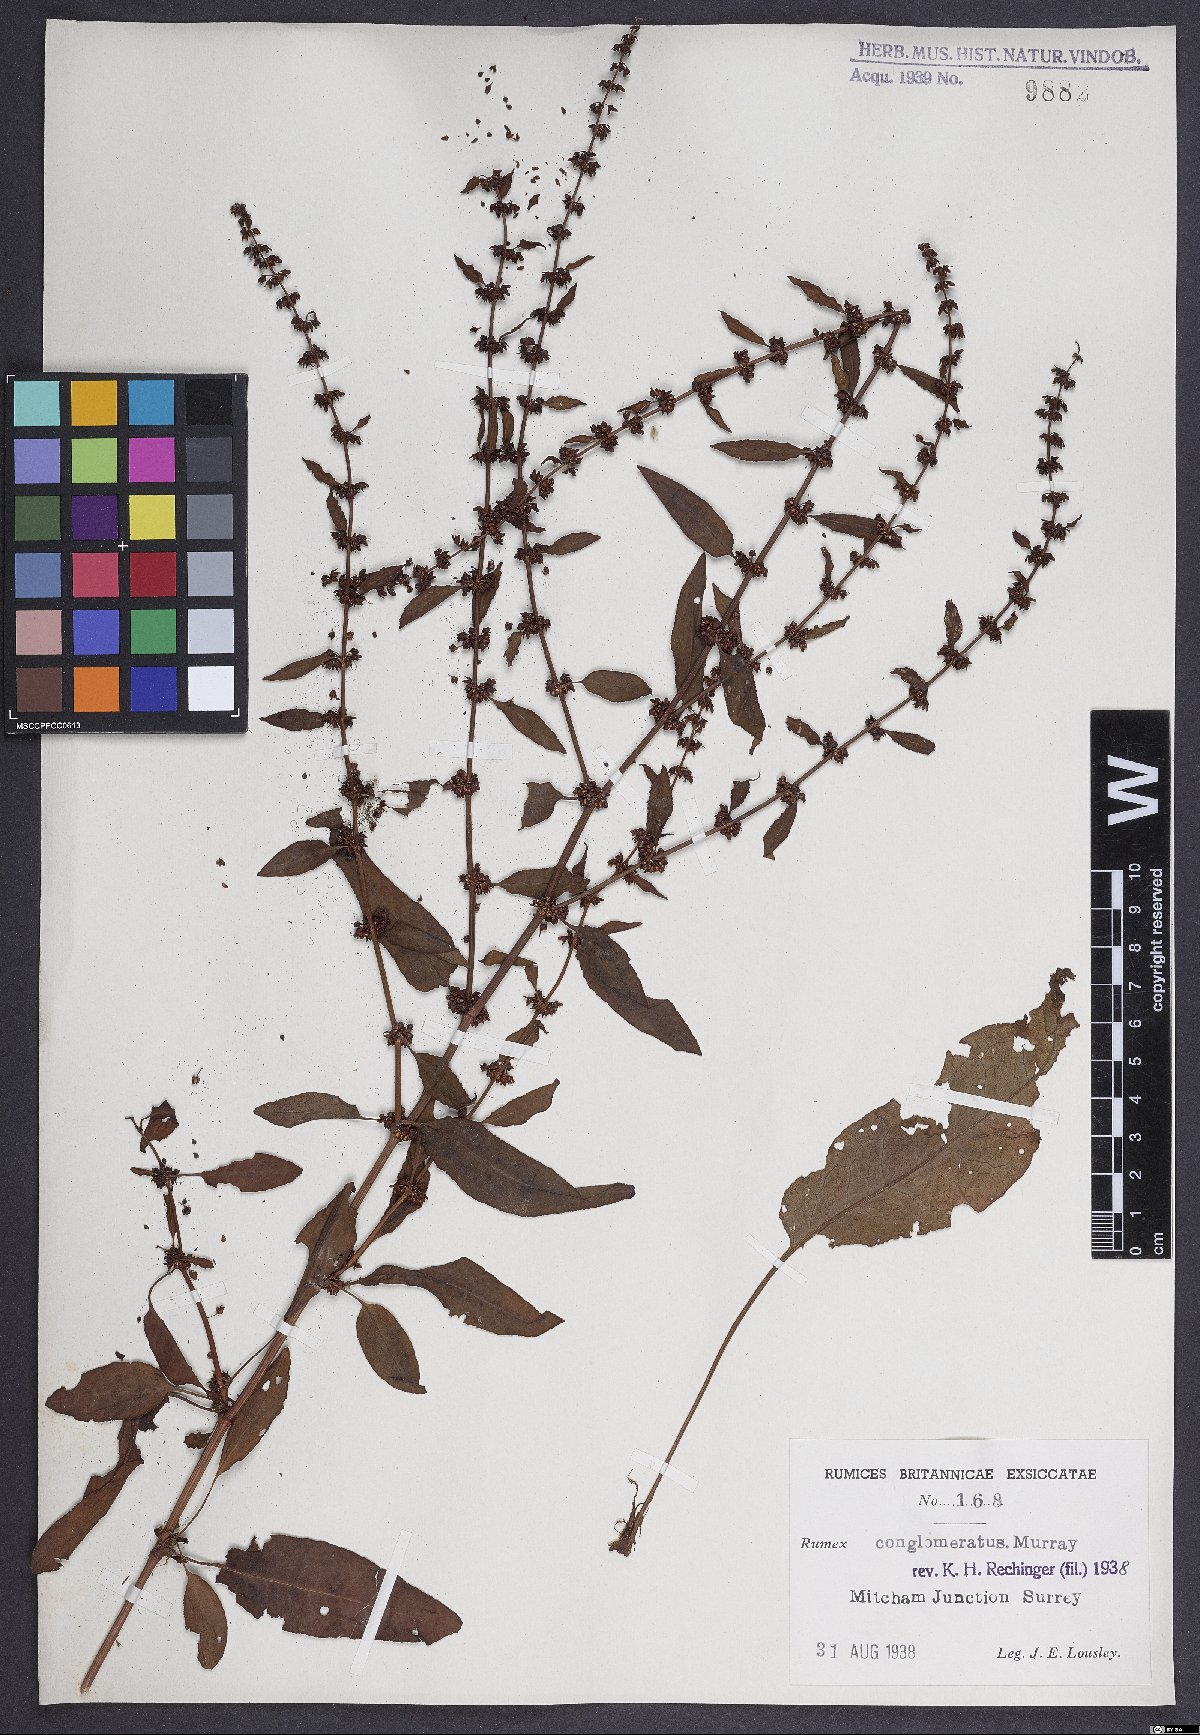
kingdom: Plantae
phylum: Tracheophyta
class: Magnoliopsida
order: Caryophyllales
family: Polygonaceae
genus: Rumex
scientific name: Rumex conglomeratus
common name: Clustered dock
